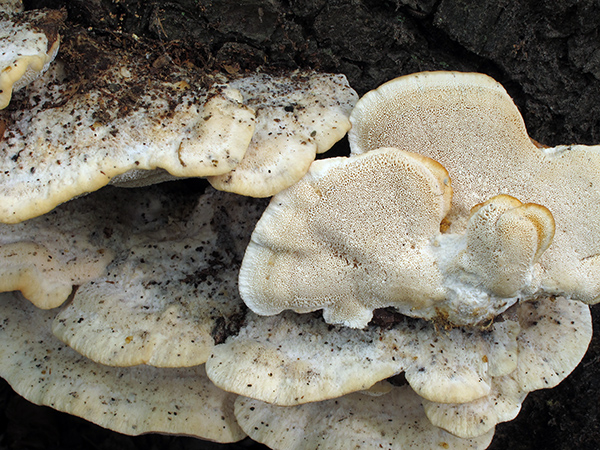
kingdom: Fungi
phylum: Basidiomycota
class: Agaricomycetes
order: Polyporales
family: Fomitopsidaceae
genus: Climacocystis
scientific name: Climacocystis borealis
